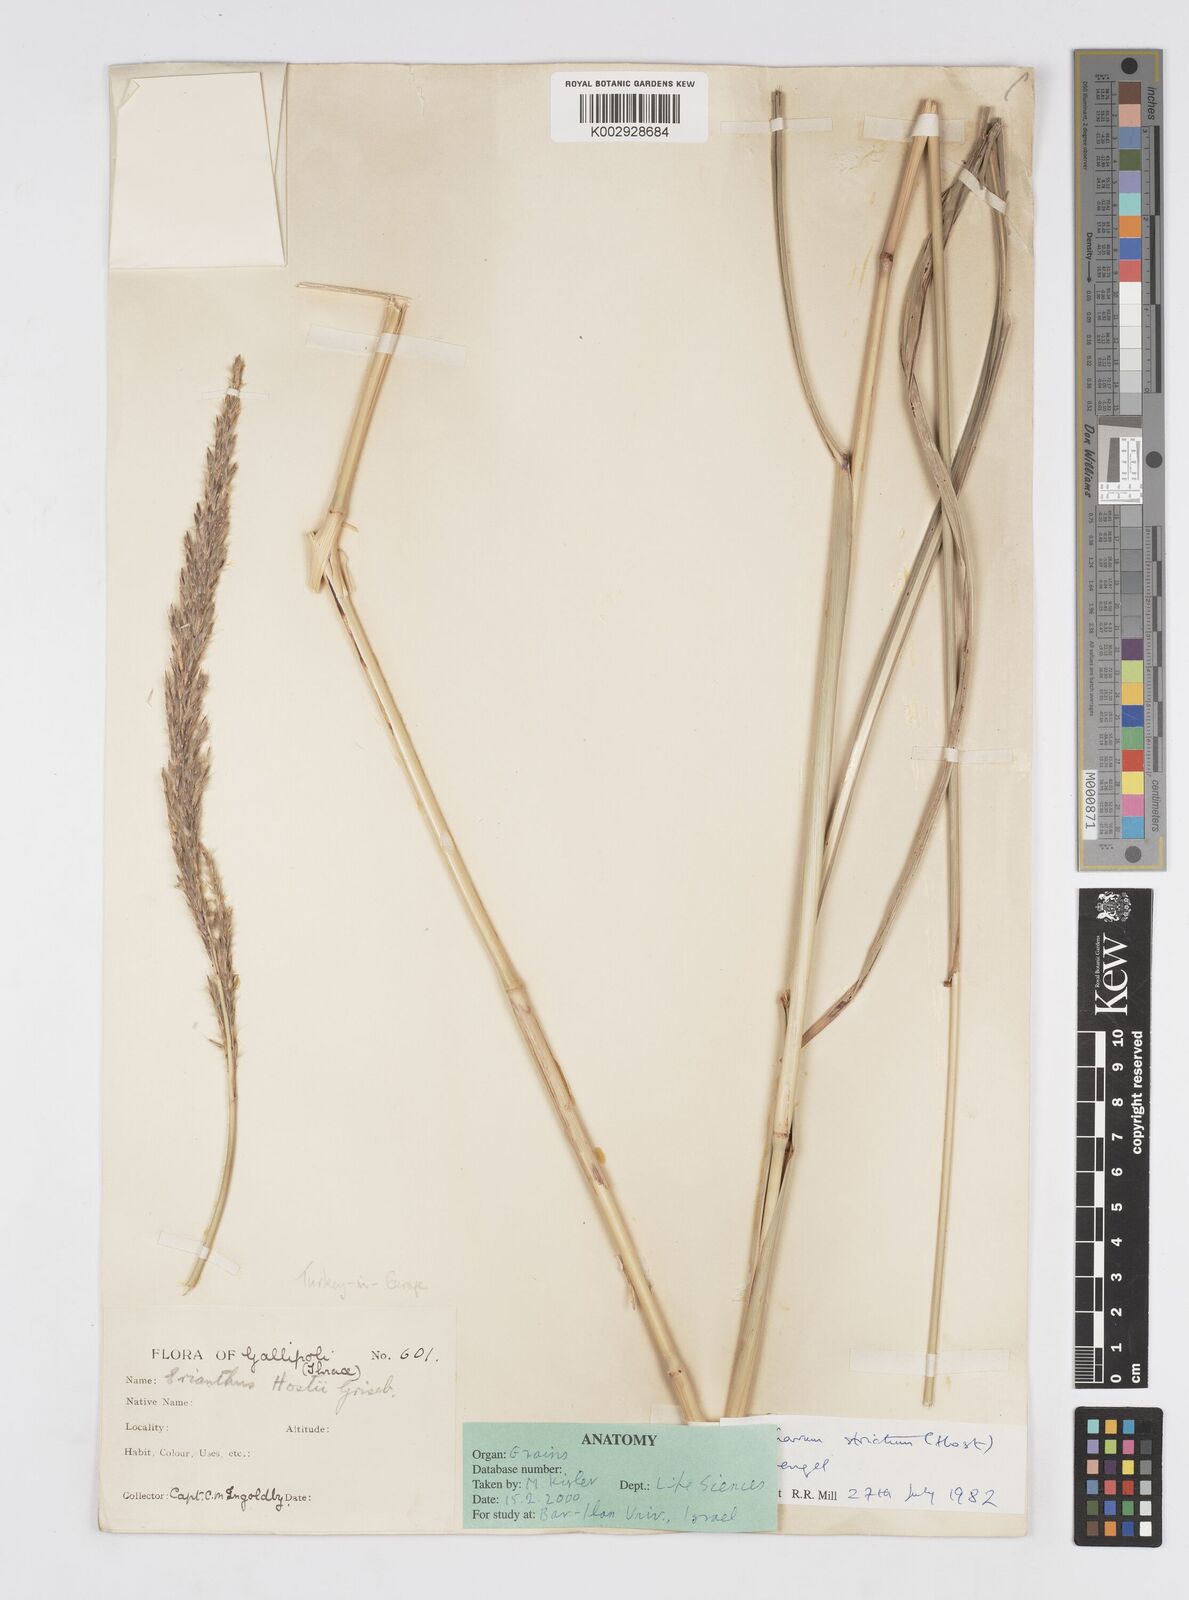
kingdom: Plantae
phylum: Tracheophyta
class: Liliopsida
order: Poales
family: Poaceae
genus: Tripidium
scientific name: Tripidium strictum
